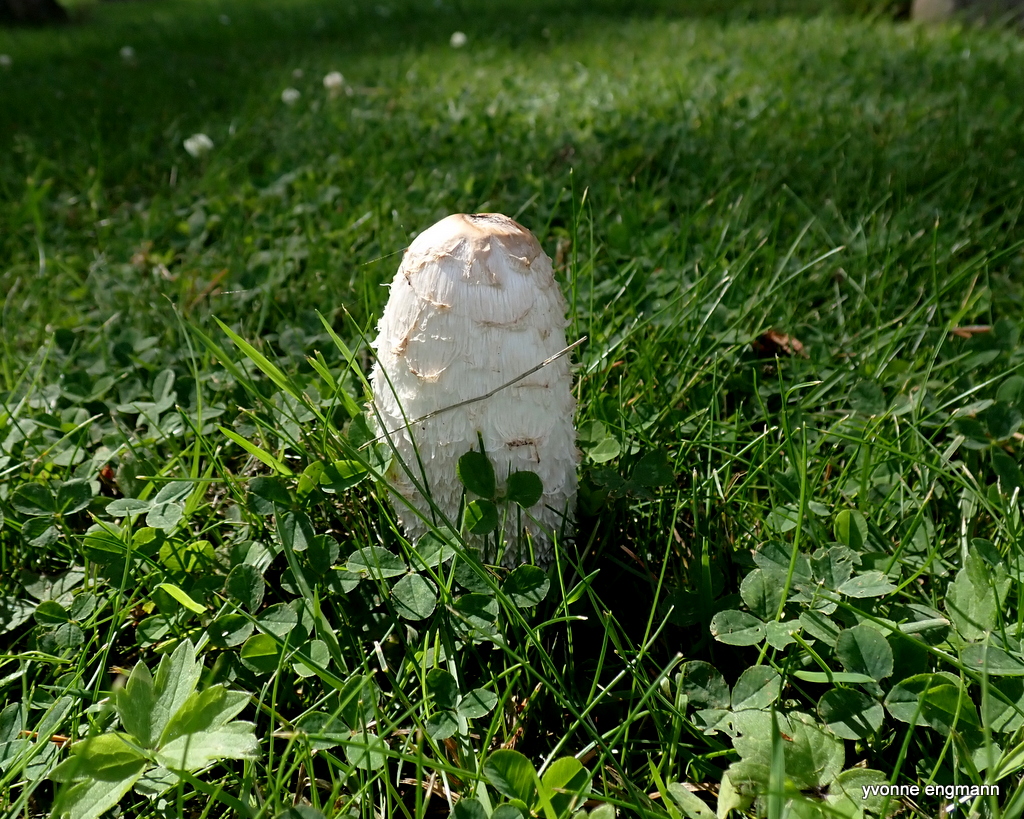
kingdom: Fungi
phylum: Basidiomycota
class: Agaricomycetes
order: Agaricales
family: Agaricaceae
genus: Coprinus
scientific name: Coprinus comatus
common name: stor parykhat
